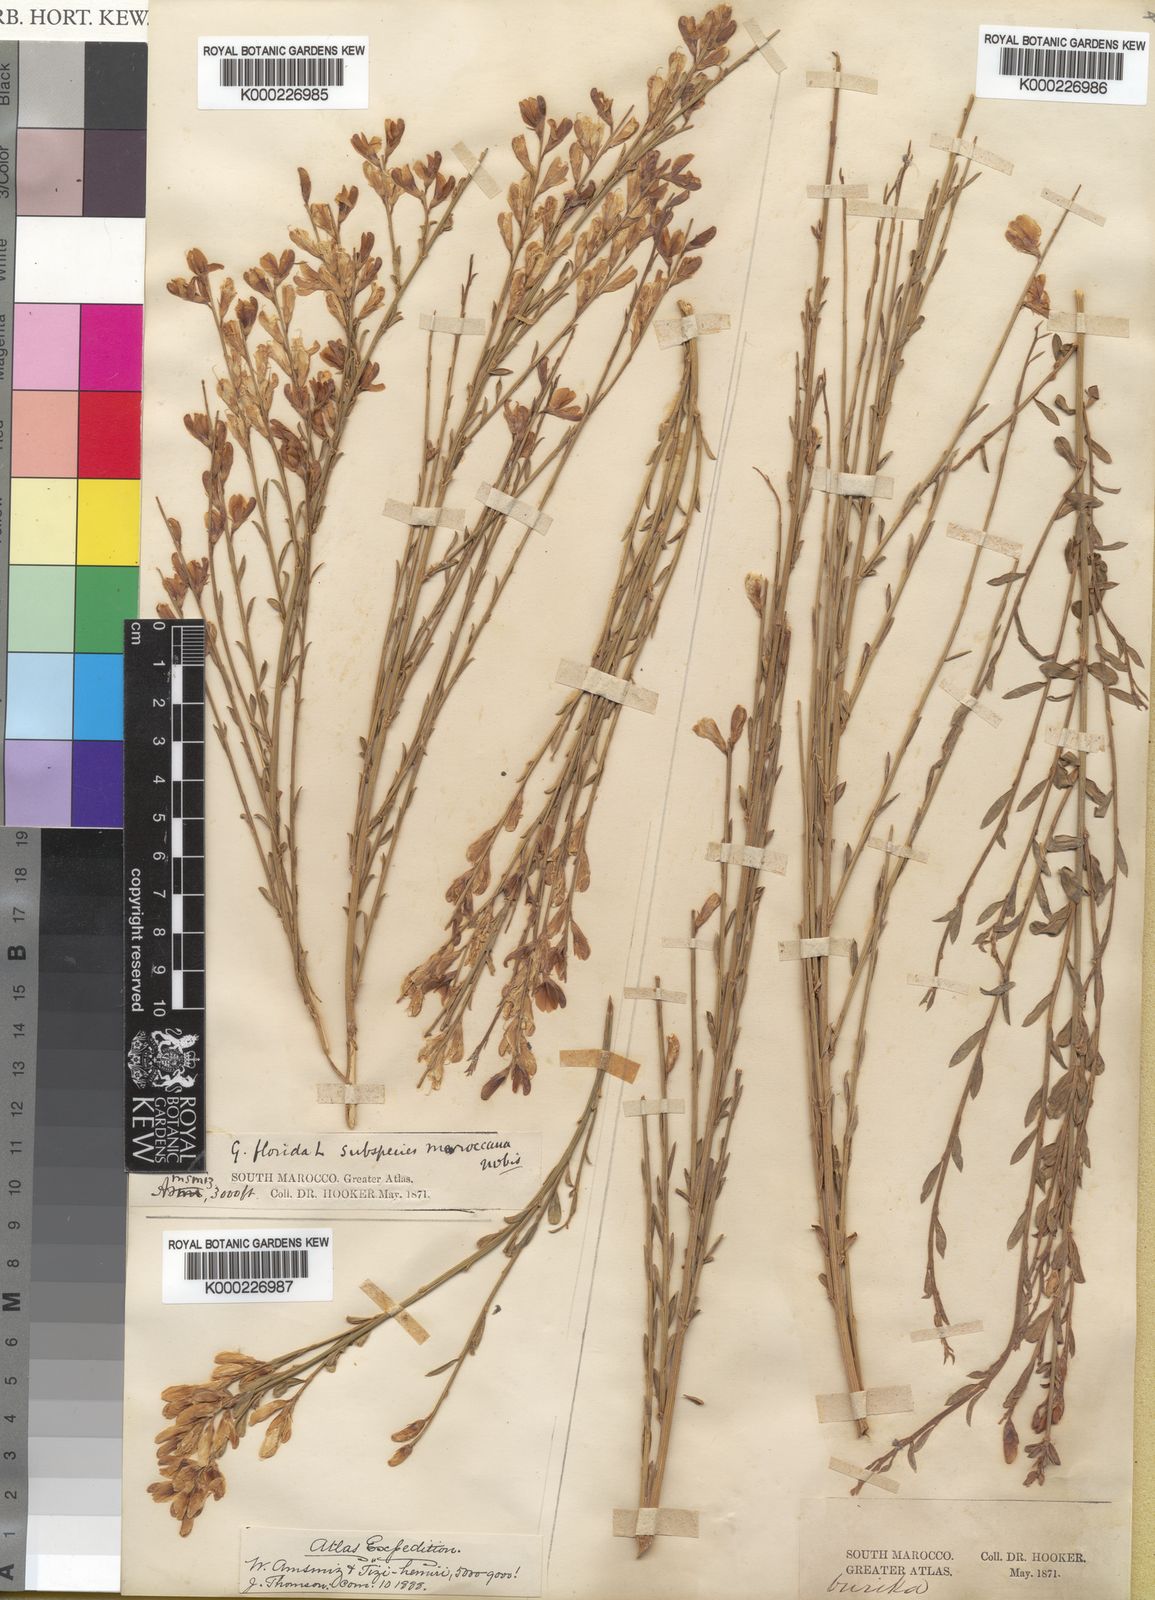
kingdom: Plantae
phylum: Tracheophyta
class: Magnoliopsida
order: Fabales
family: Fabaceae
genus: Genista
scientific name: Genista florida
